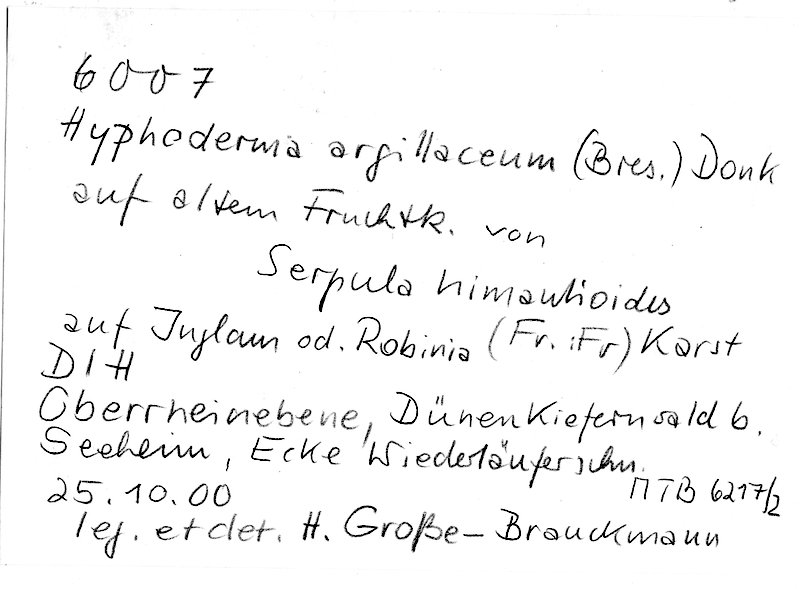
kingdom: Plantae
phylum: Tracheophyta
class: Magnoliopsida
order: Fagales
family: Juglandaceae
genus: Juglans
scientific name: Juglans
